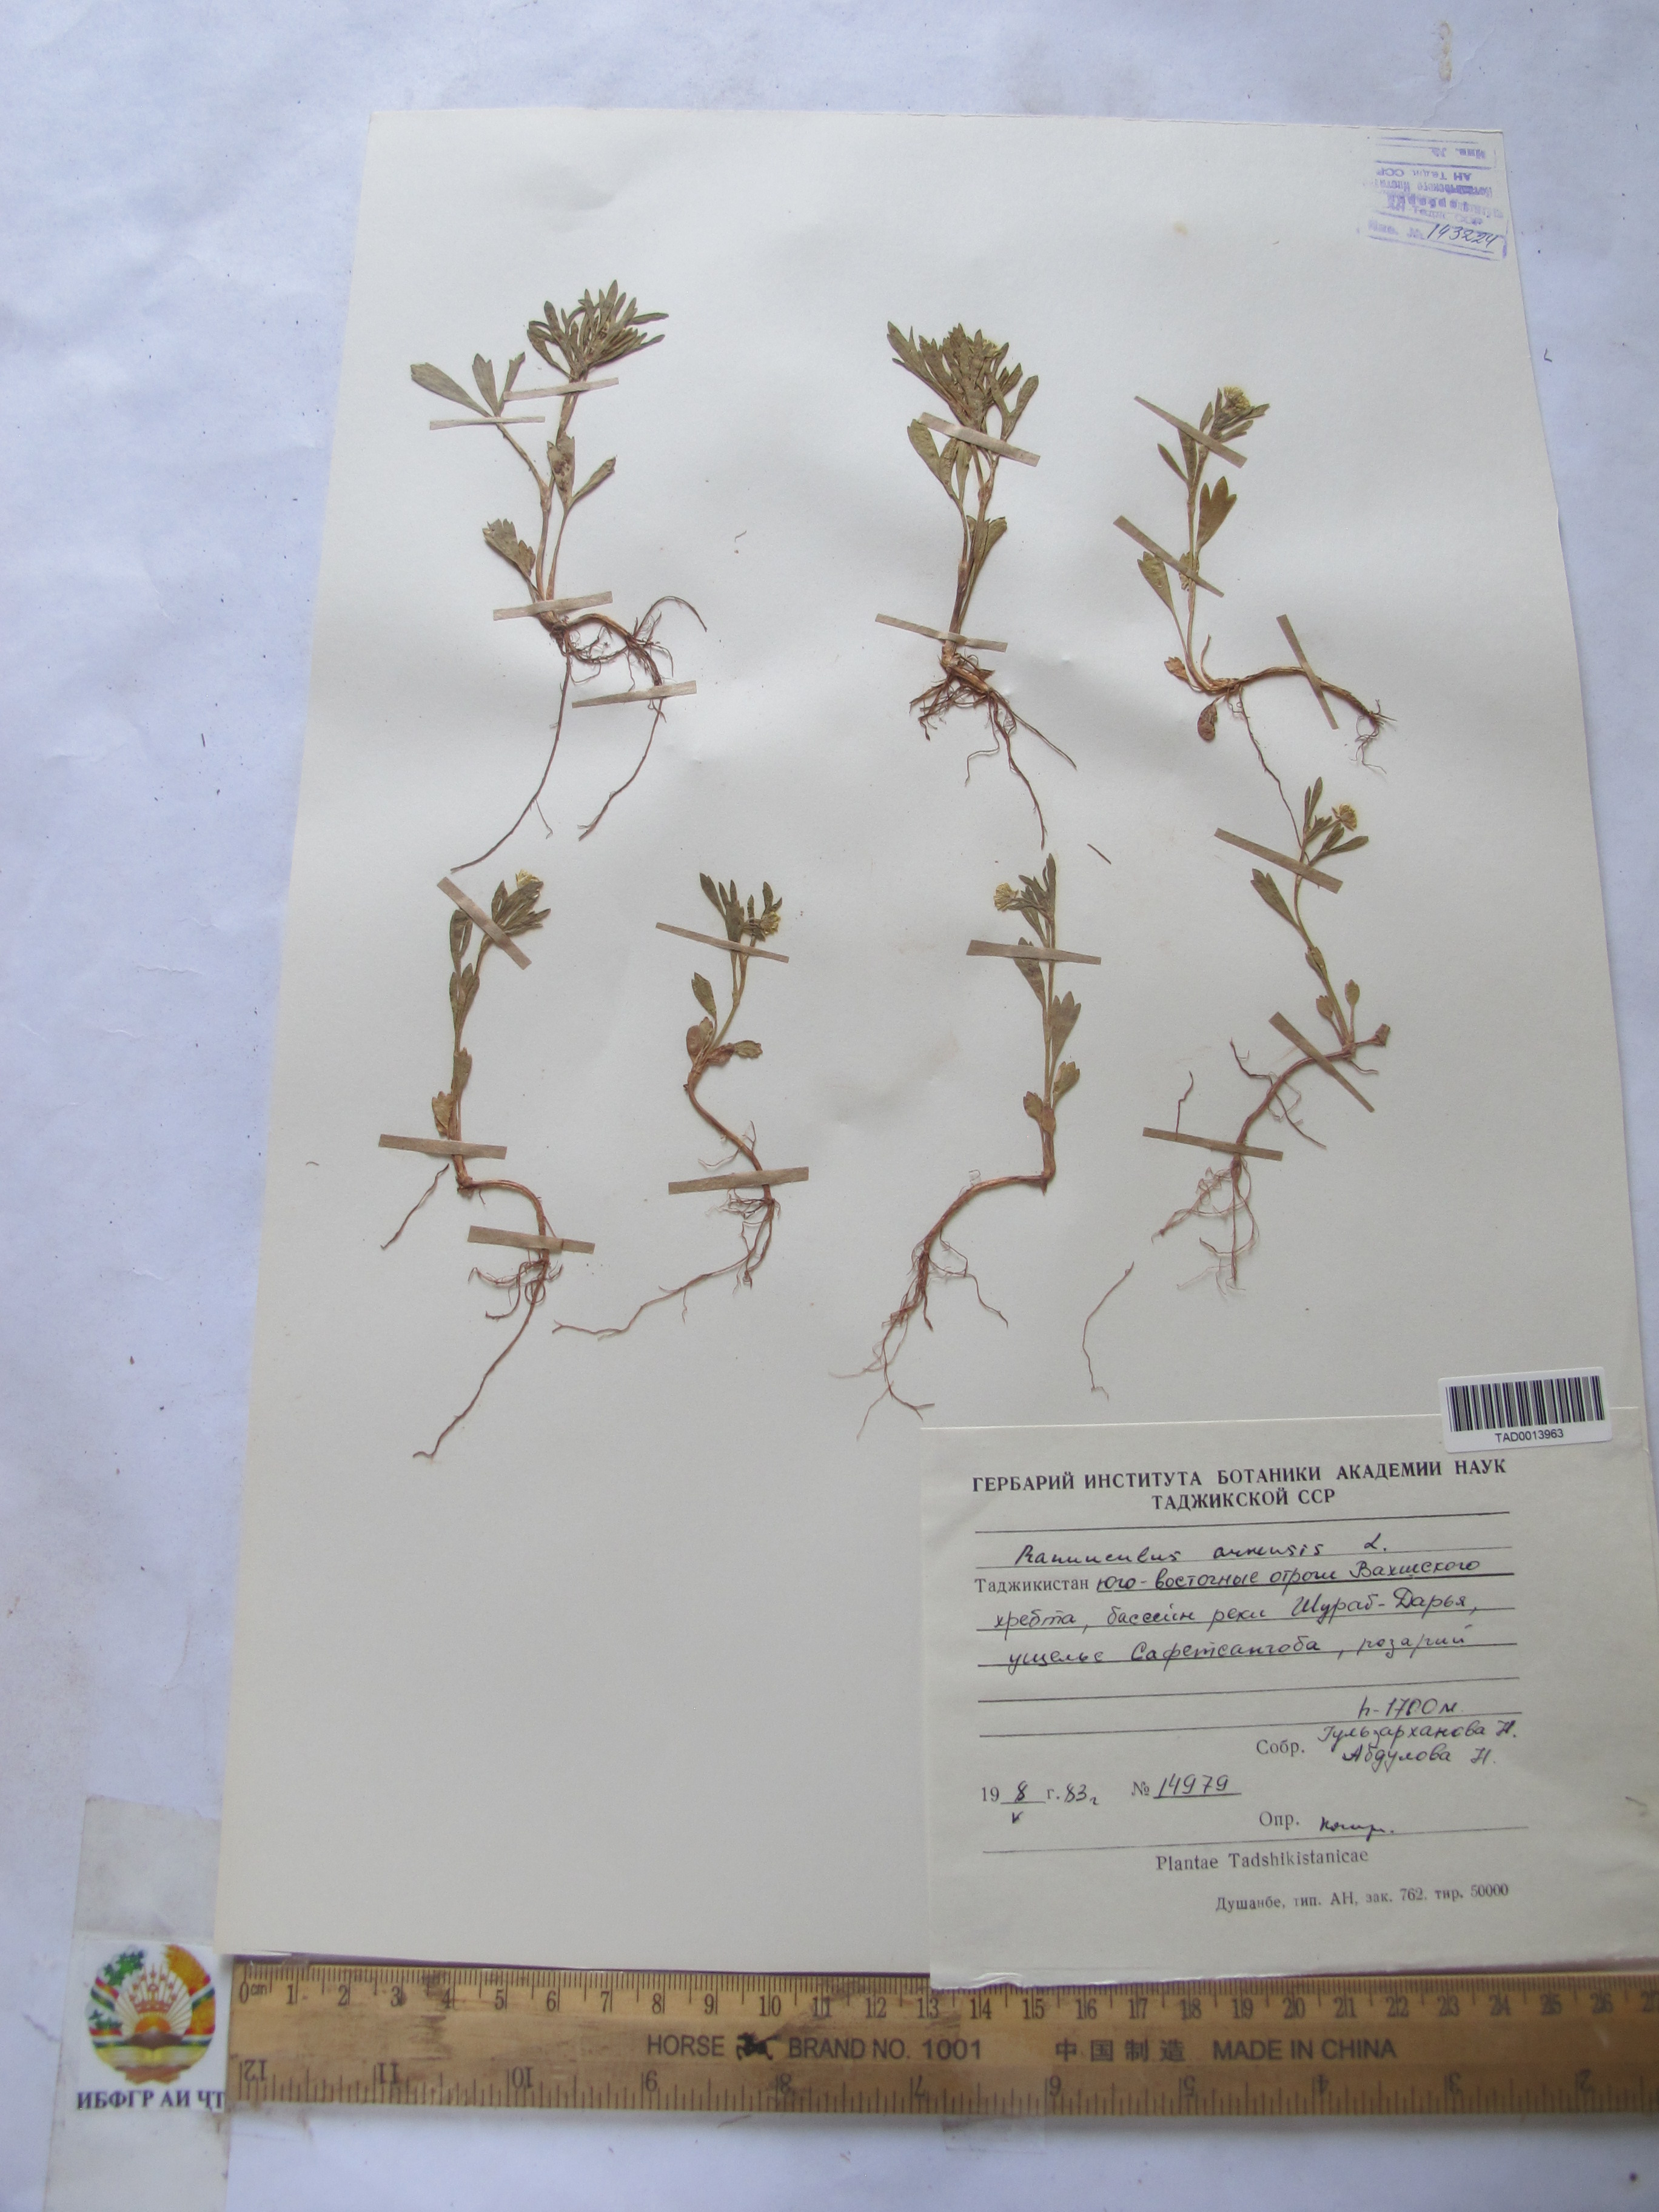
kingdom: Plantae
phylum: Tracheophyta
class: Magnoliopsida
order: Ranunculales
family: Ranunculaceae
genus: Ranunculus
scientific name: Ranunculus arvensis
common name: Corn buttercup
